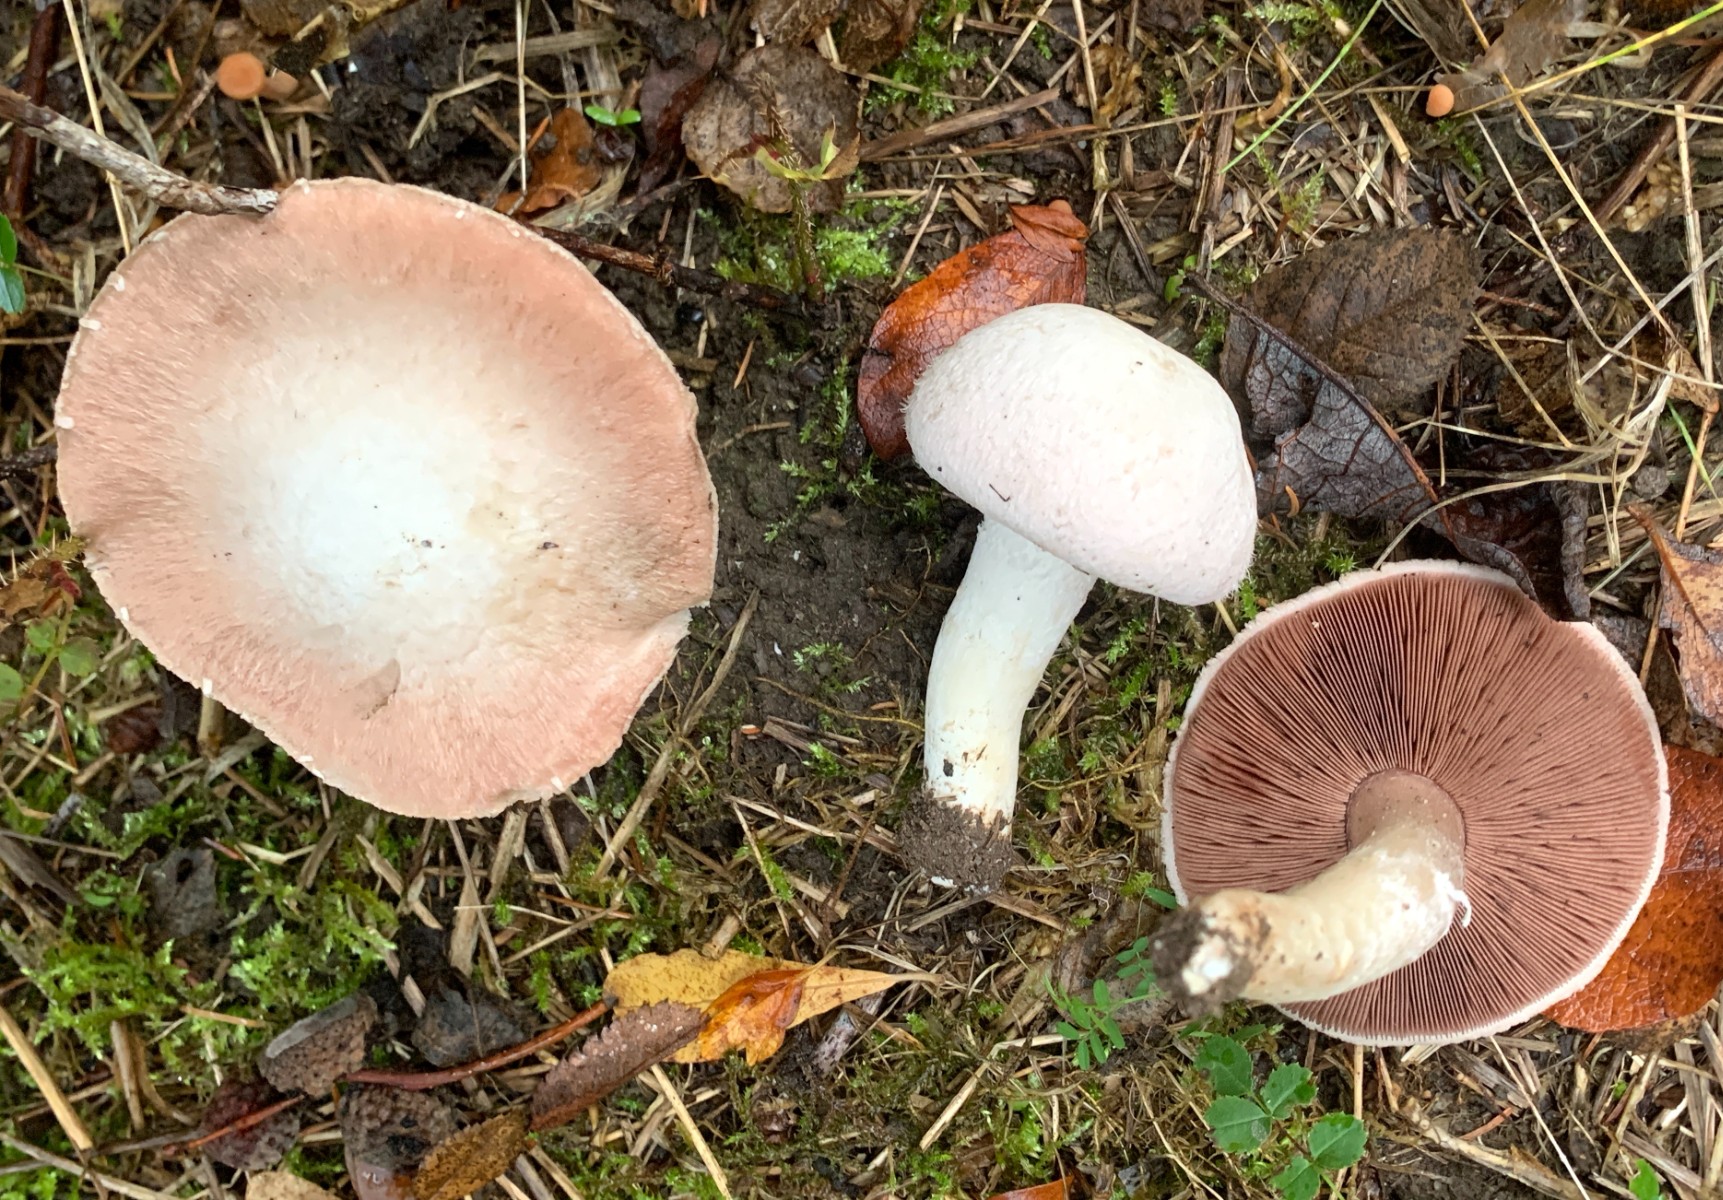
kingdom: Fungi
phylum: Basidiomycota
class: Agaricomycetes
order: Agaricales
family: Agaricaceae
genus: Agaricus
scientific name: Agaricus campestris
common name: mark-champignon
